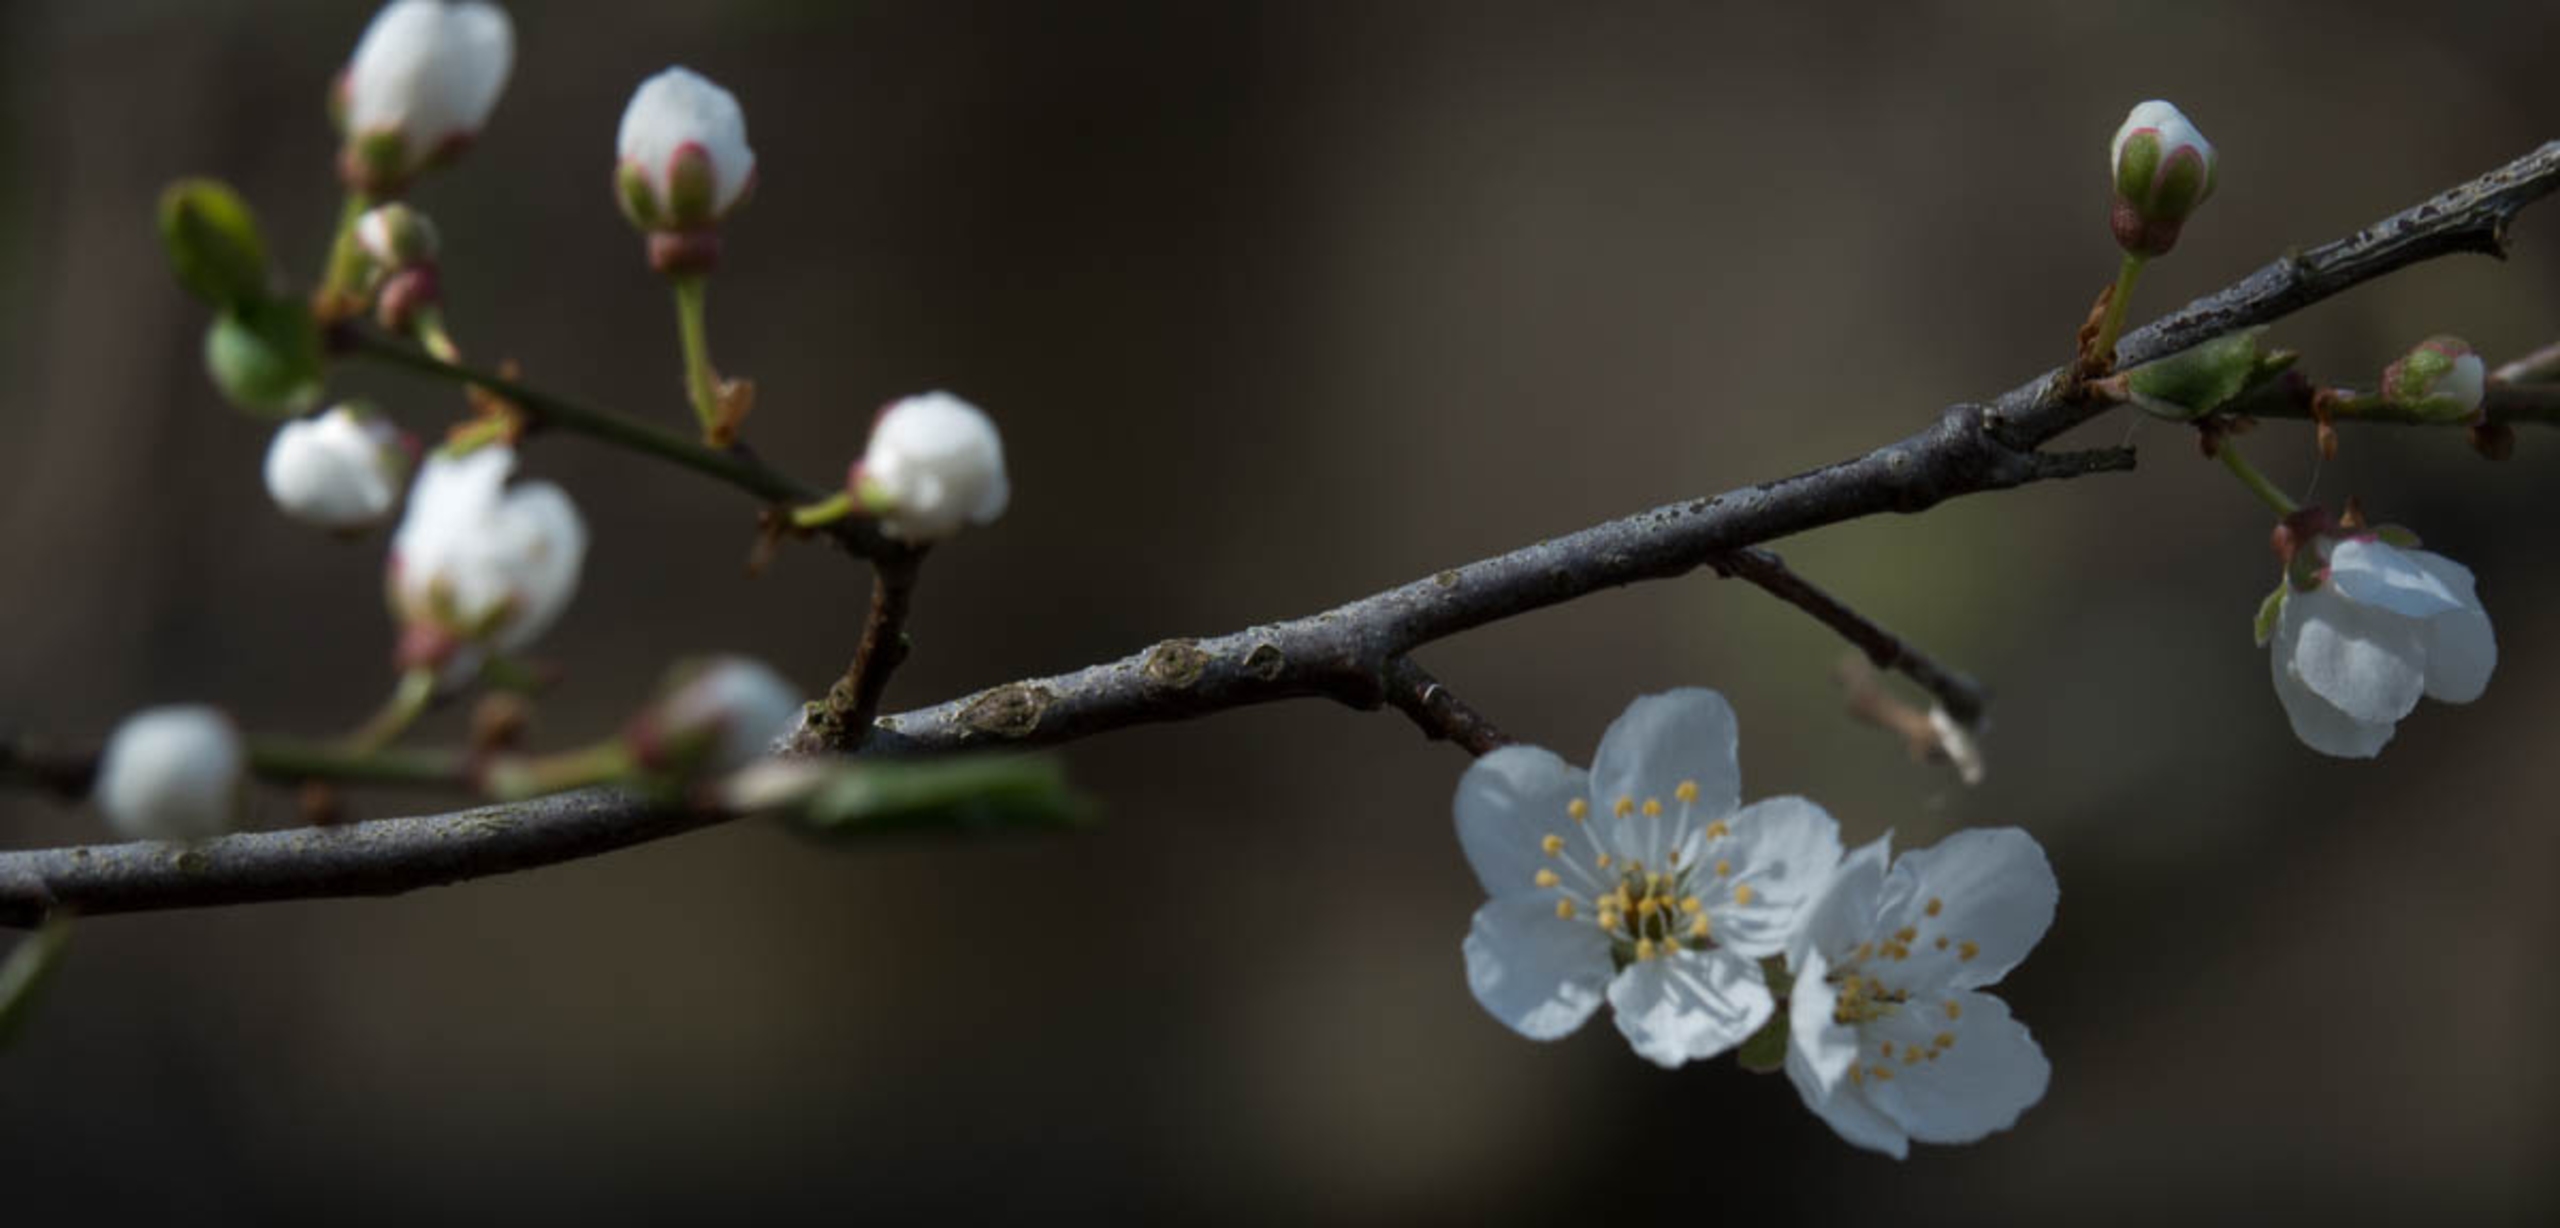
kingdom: Plantae
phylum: Tracheophyta
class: Magnoliopsida
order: Rosales
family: Rosaceae
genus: Prunus
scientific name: Prunus cerasifera
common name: Mirabel
